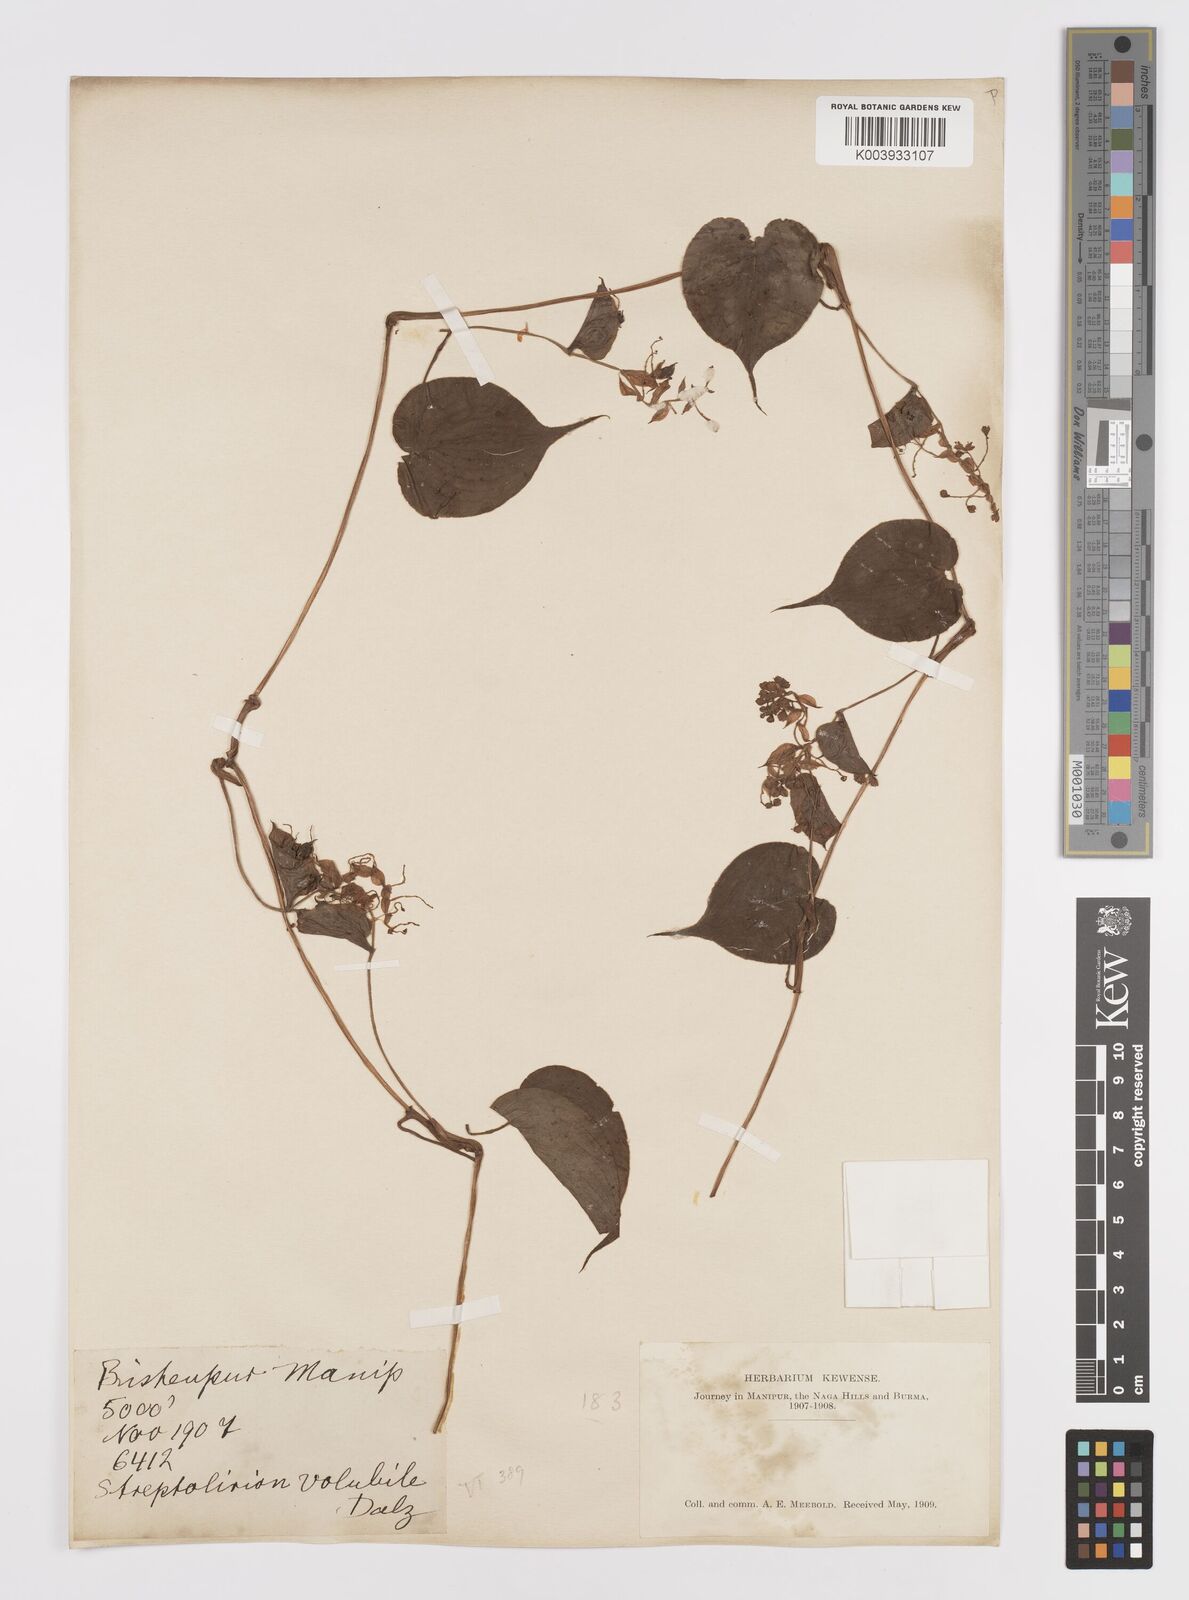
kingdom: Plantae
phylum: Tracheophyta
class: Liliopsida
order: Commelinales
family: Commelinaceae
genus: Streptolirion
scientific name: Streptolirion volubile
